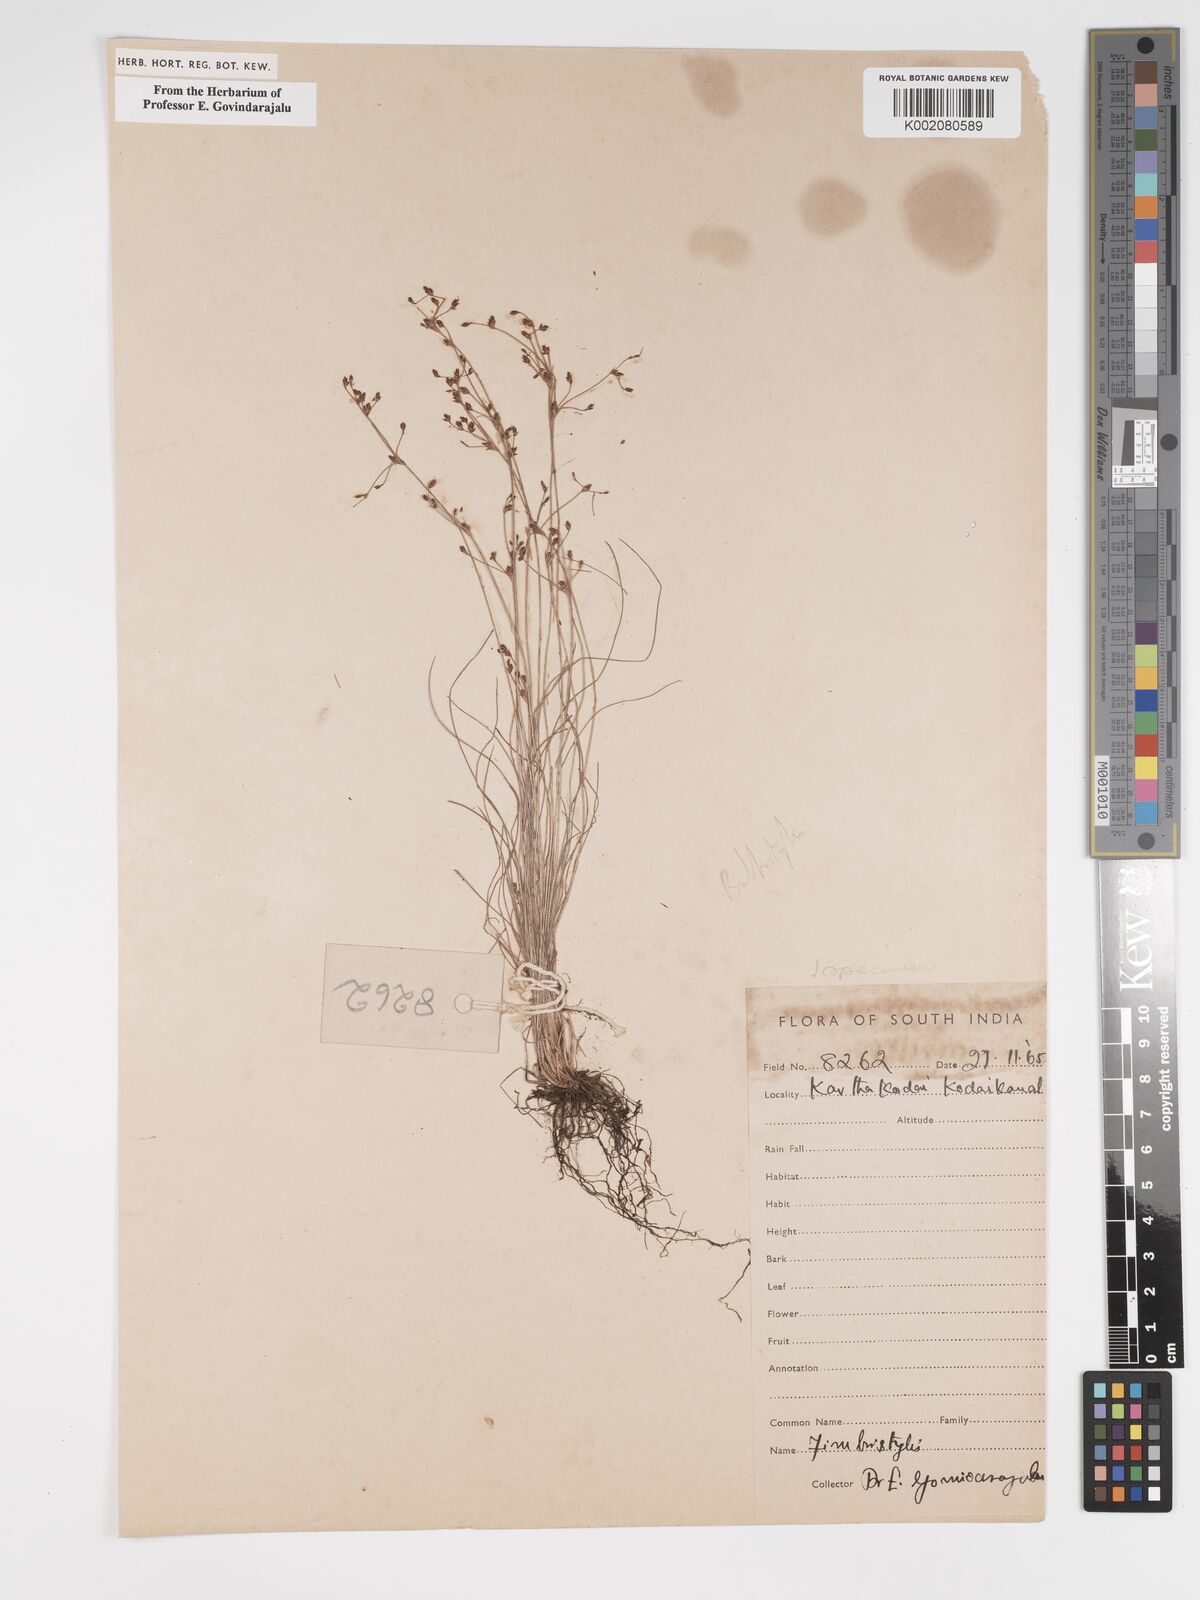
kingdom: Plantae
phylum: Tracheophyta
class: Liliopsida
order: Poales
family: Cyperaceae
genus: Bulbostylis
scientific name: Bulbostylis
